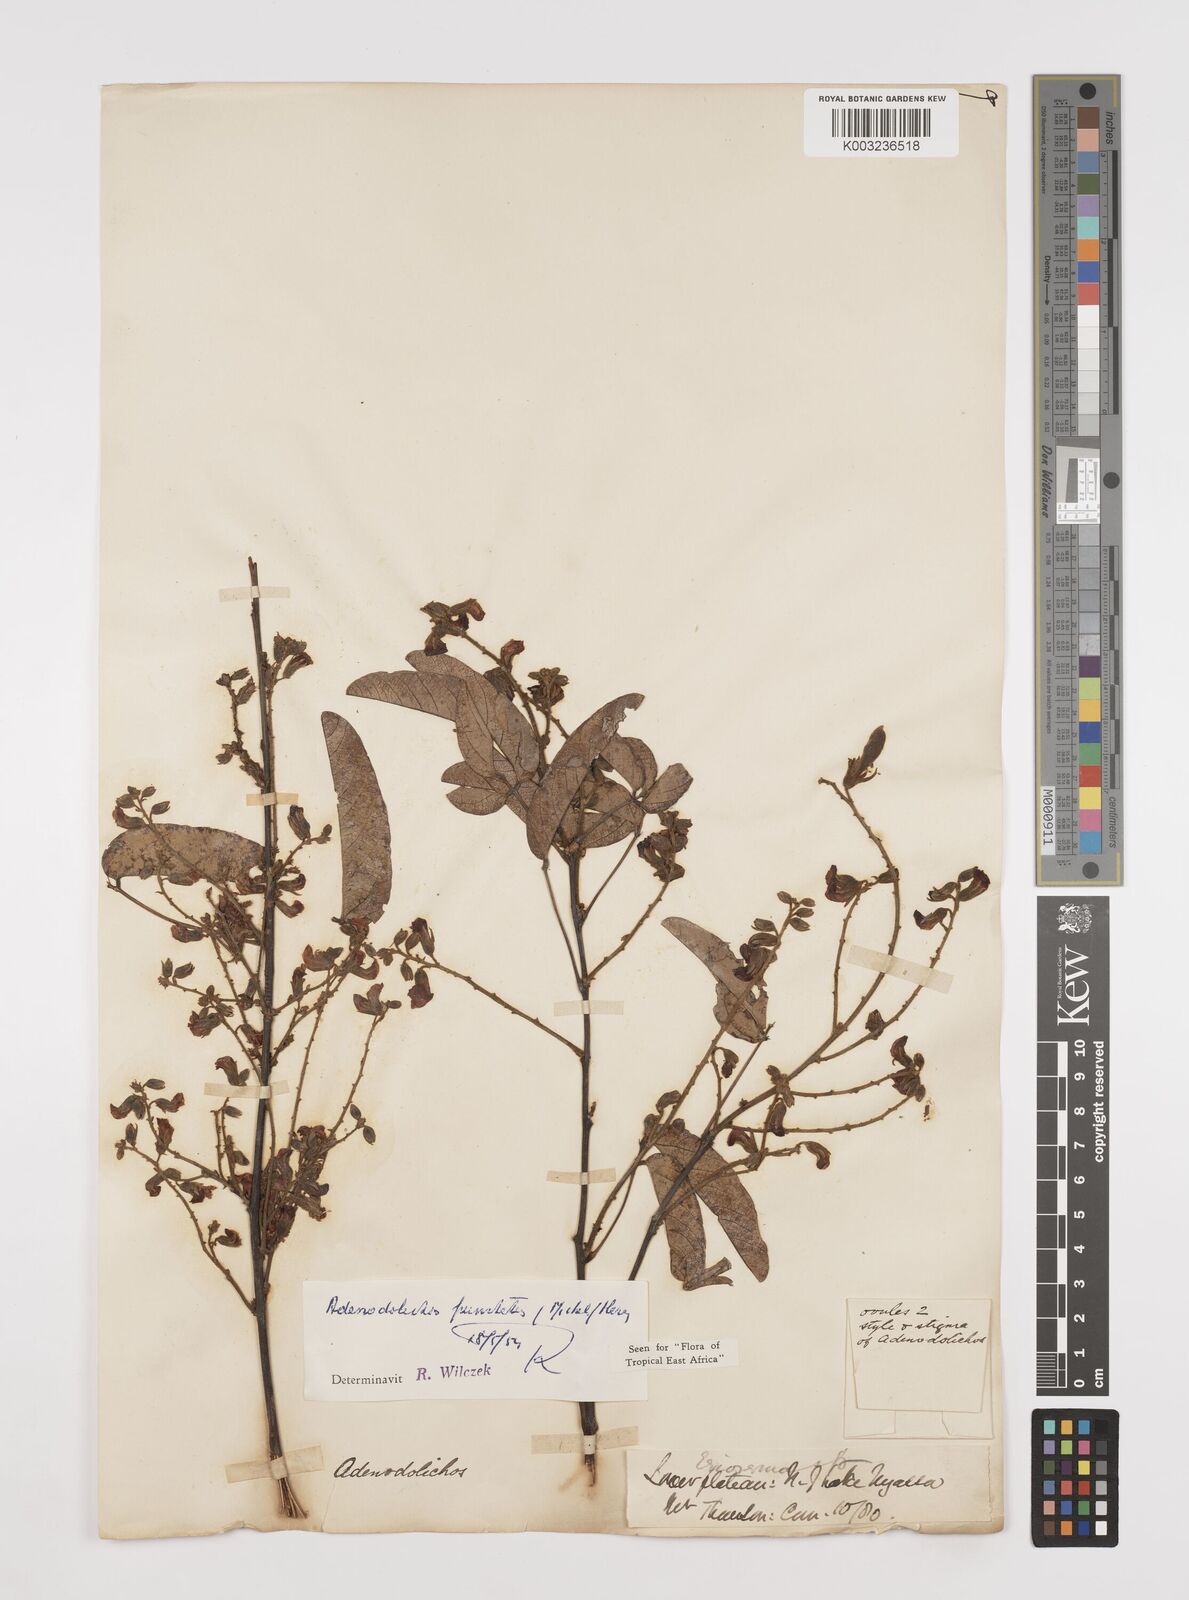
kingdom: Plantae
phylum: Tracheophyta
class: Magnoliopsida
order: Fabales
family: Fabaceae
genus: Adenodolichos
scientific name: Adenodolichos punctatus
